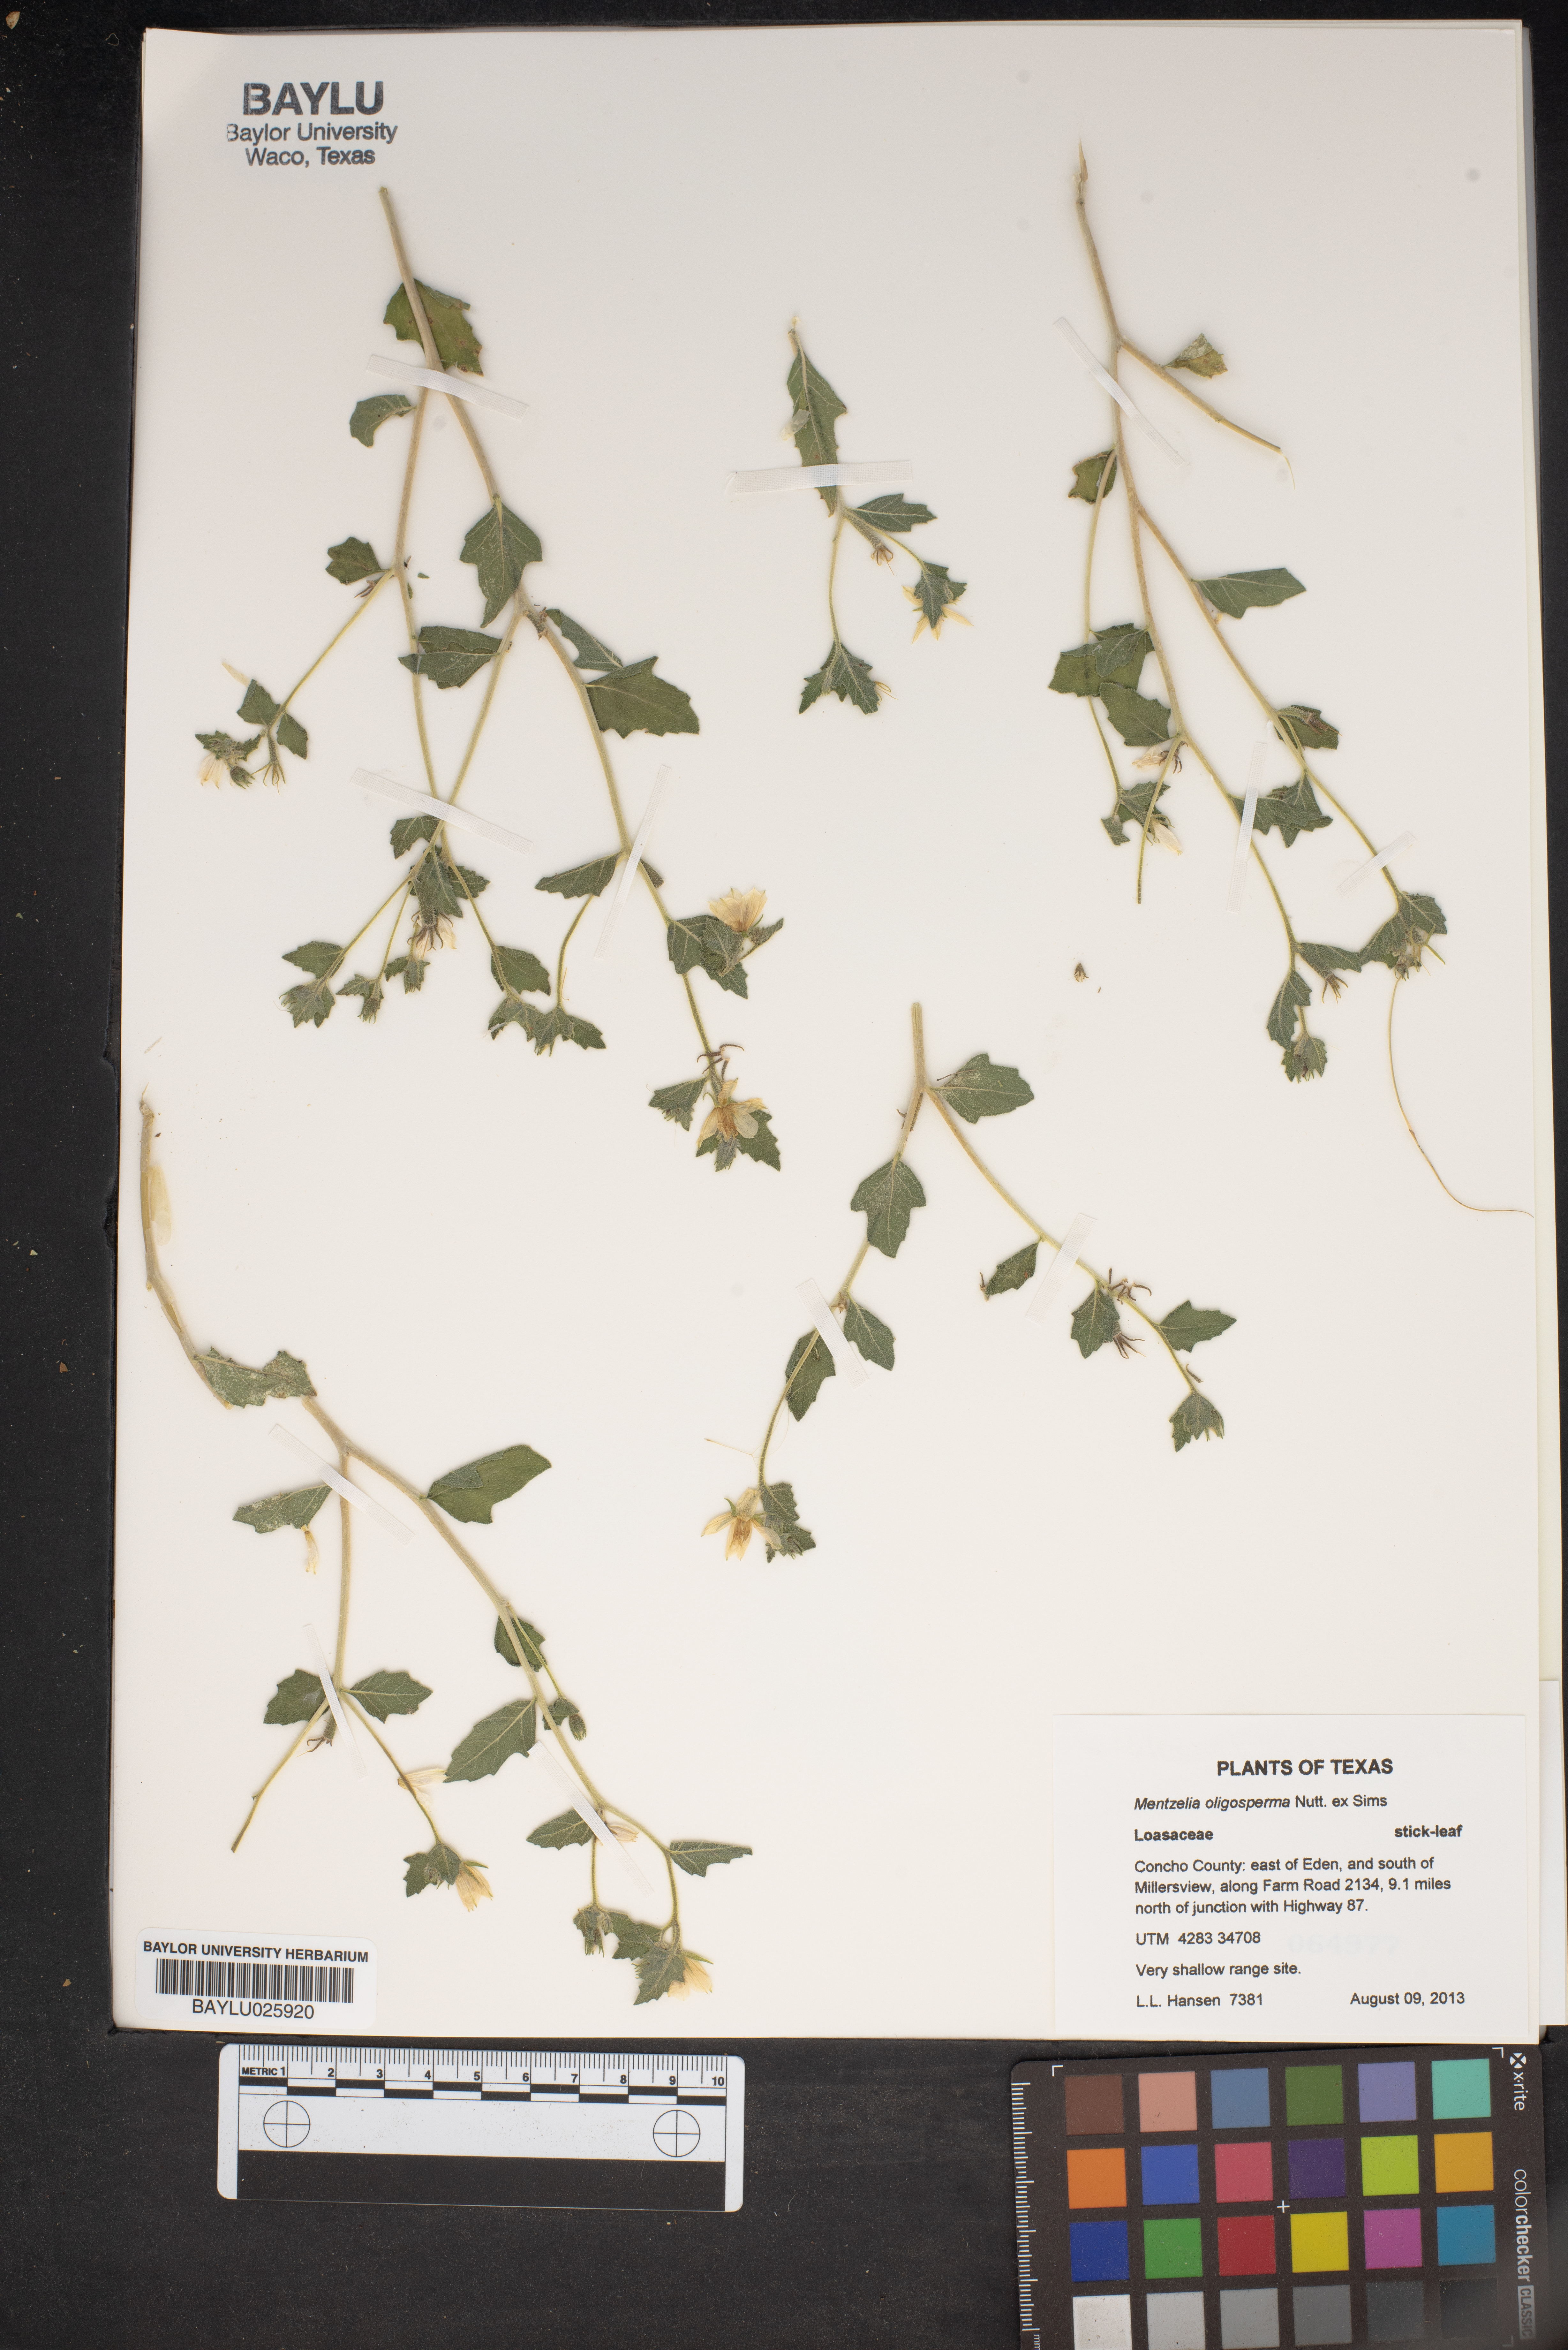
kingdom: Plantae
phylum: Tracheophyta
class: Magnoliopsida
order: Cornales
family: Loasaceae
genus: Mentzelia
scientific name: Mentzelia oligosperma
